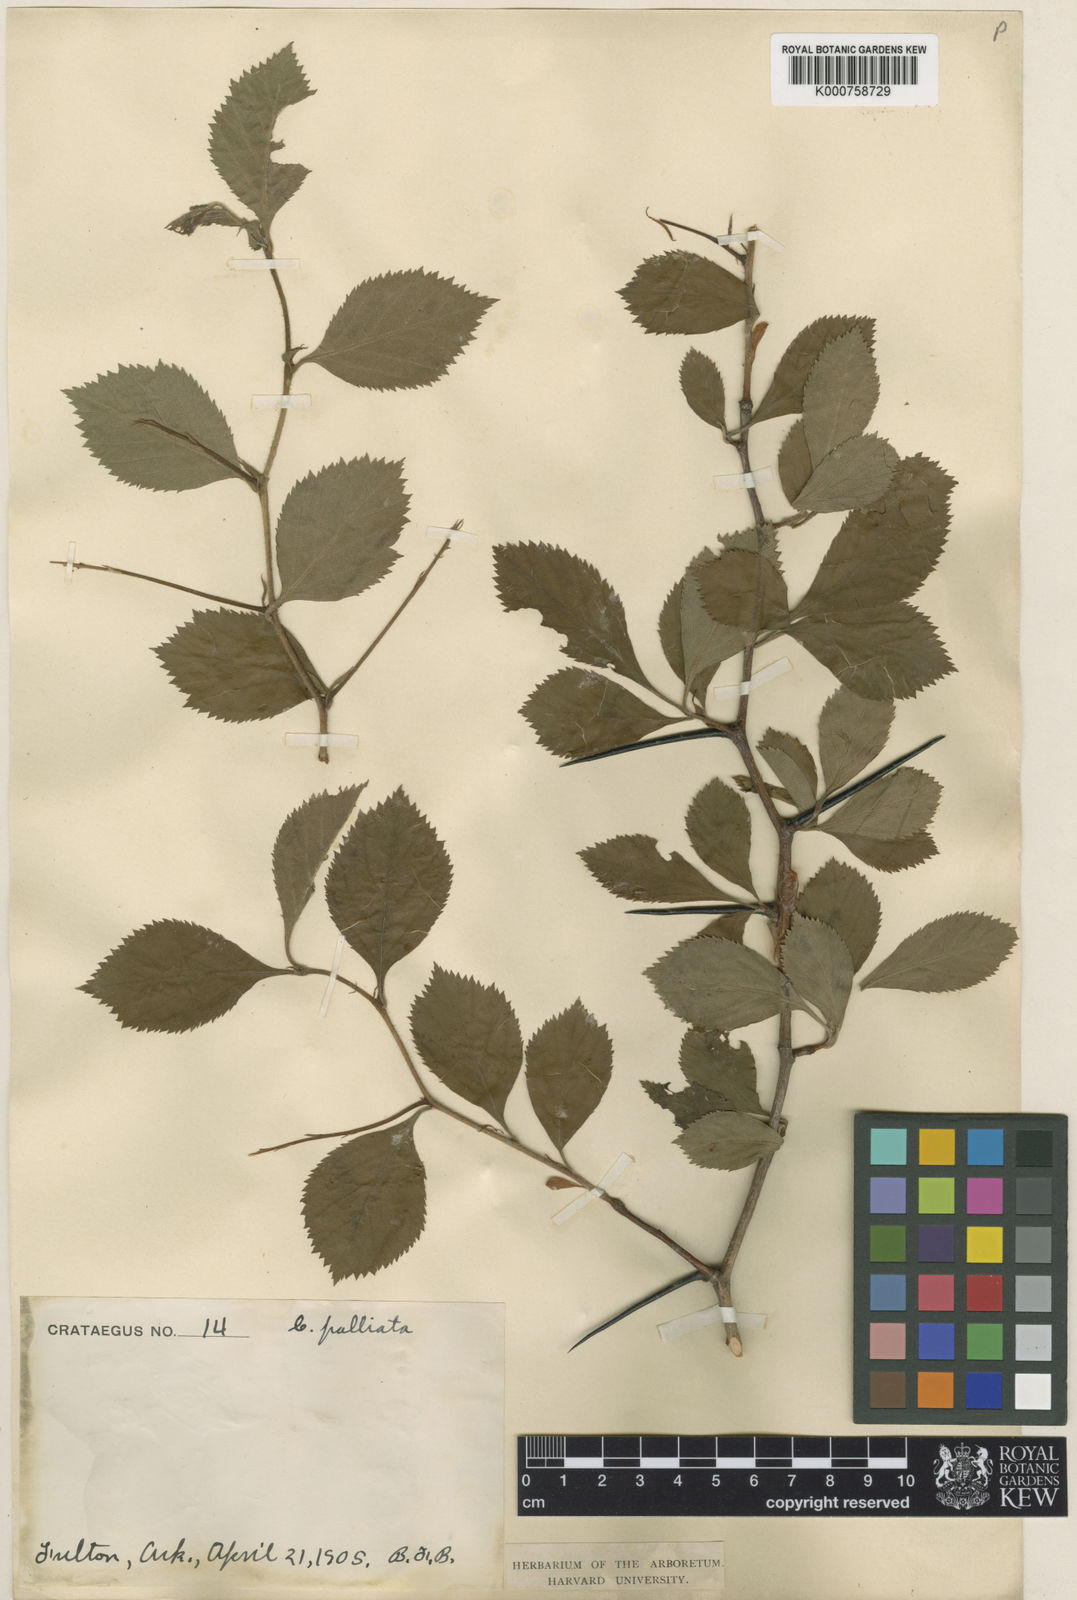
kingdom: Plantae
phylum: Tracheophyta
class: Magnoliopsida
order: Rosales
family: Rosaceae
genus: Crataegus
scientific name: Crataegus
